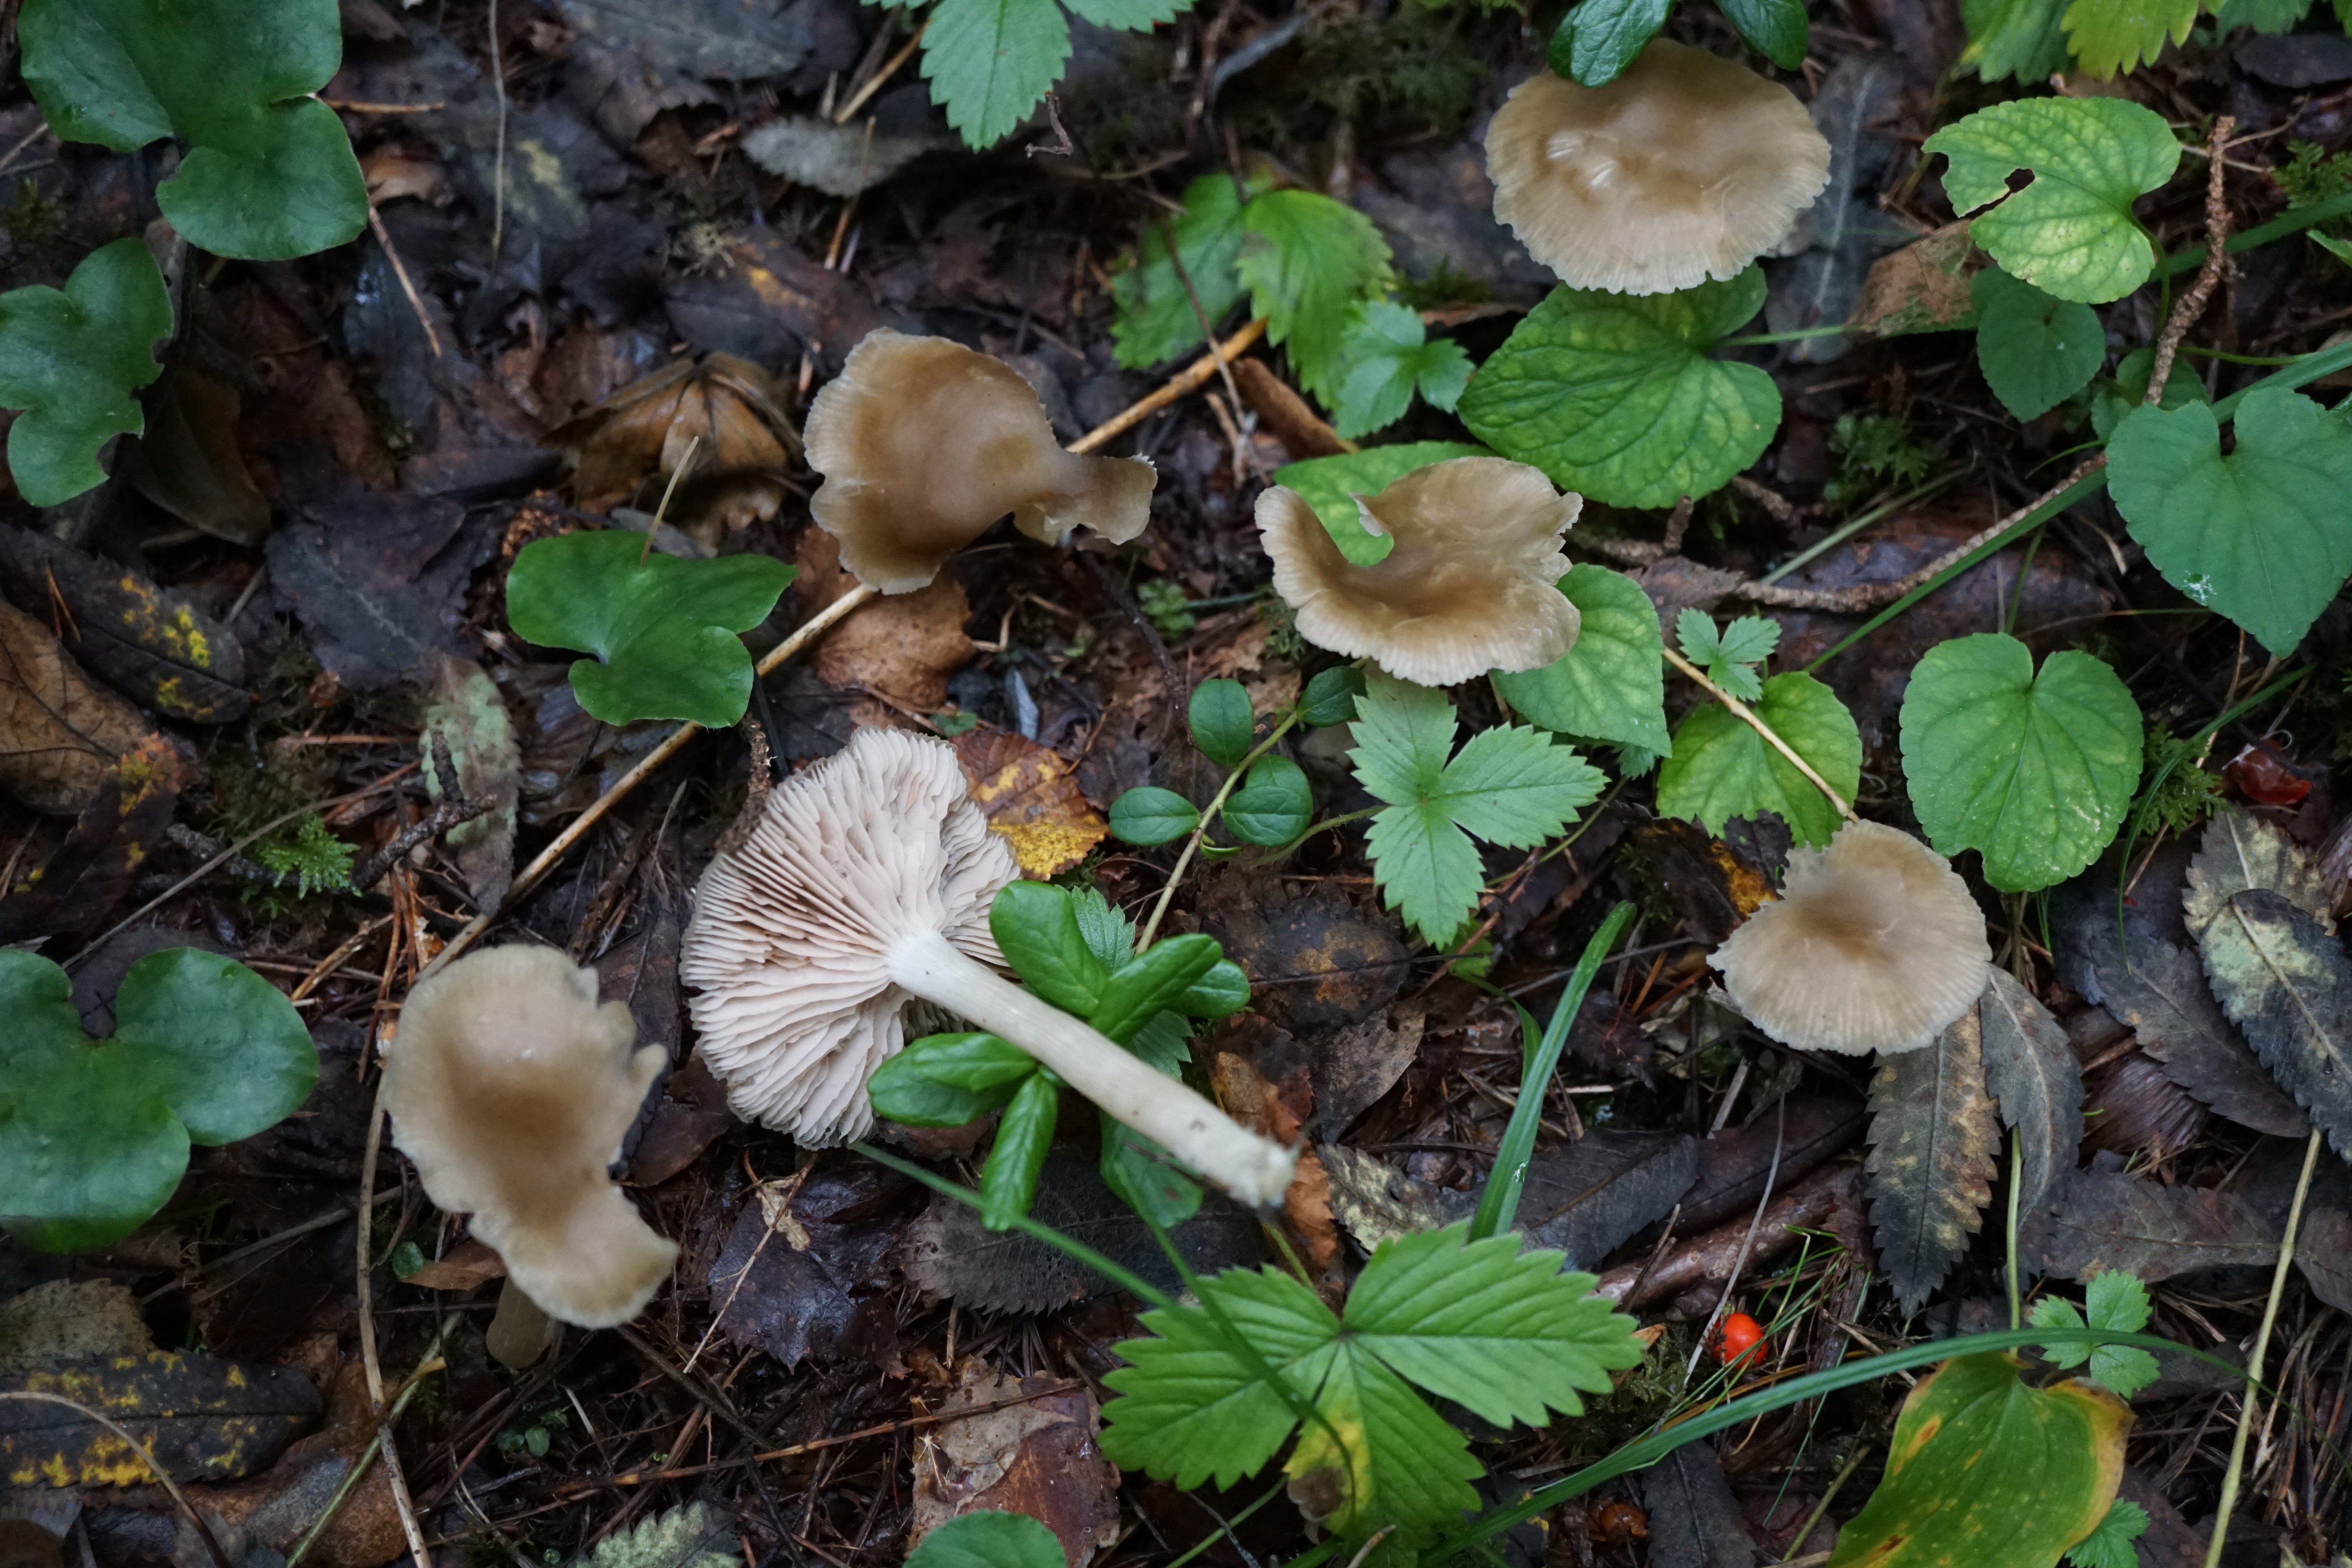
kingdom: Fungi
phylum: Basidiomycota
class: Agaricomycetes
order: Agaricales
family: Entolomataceae
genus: Entoloma
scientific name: Entoloma
